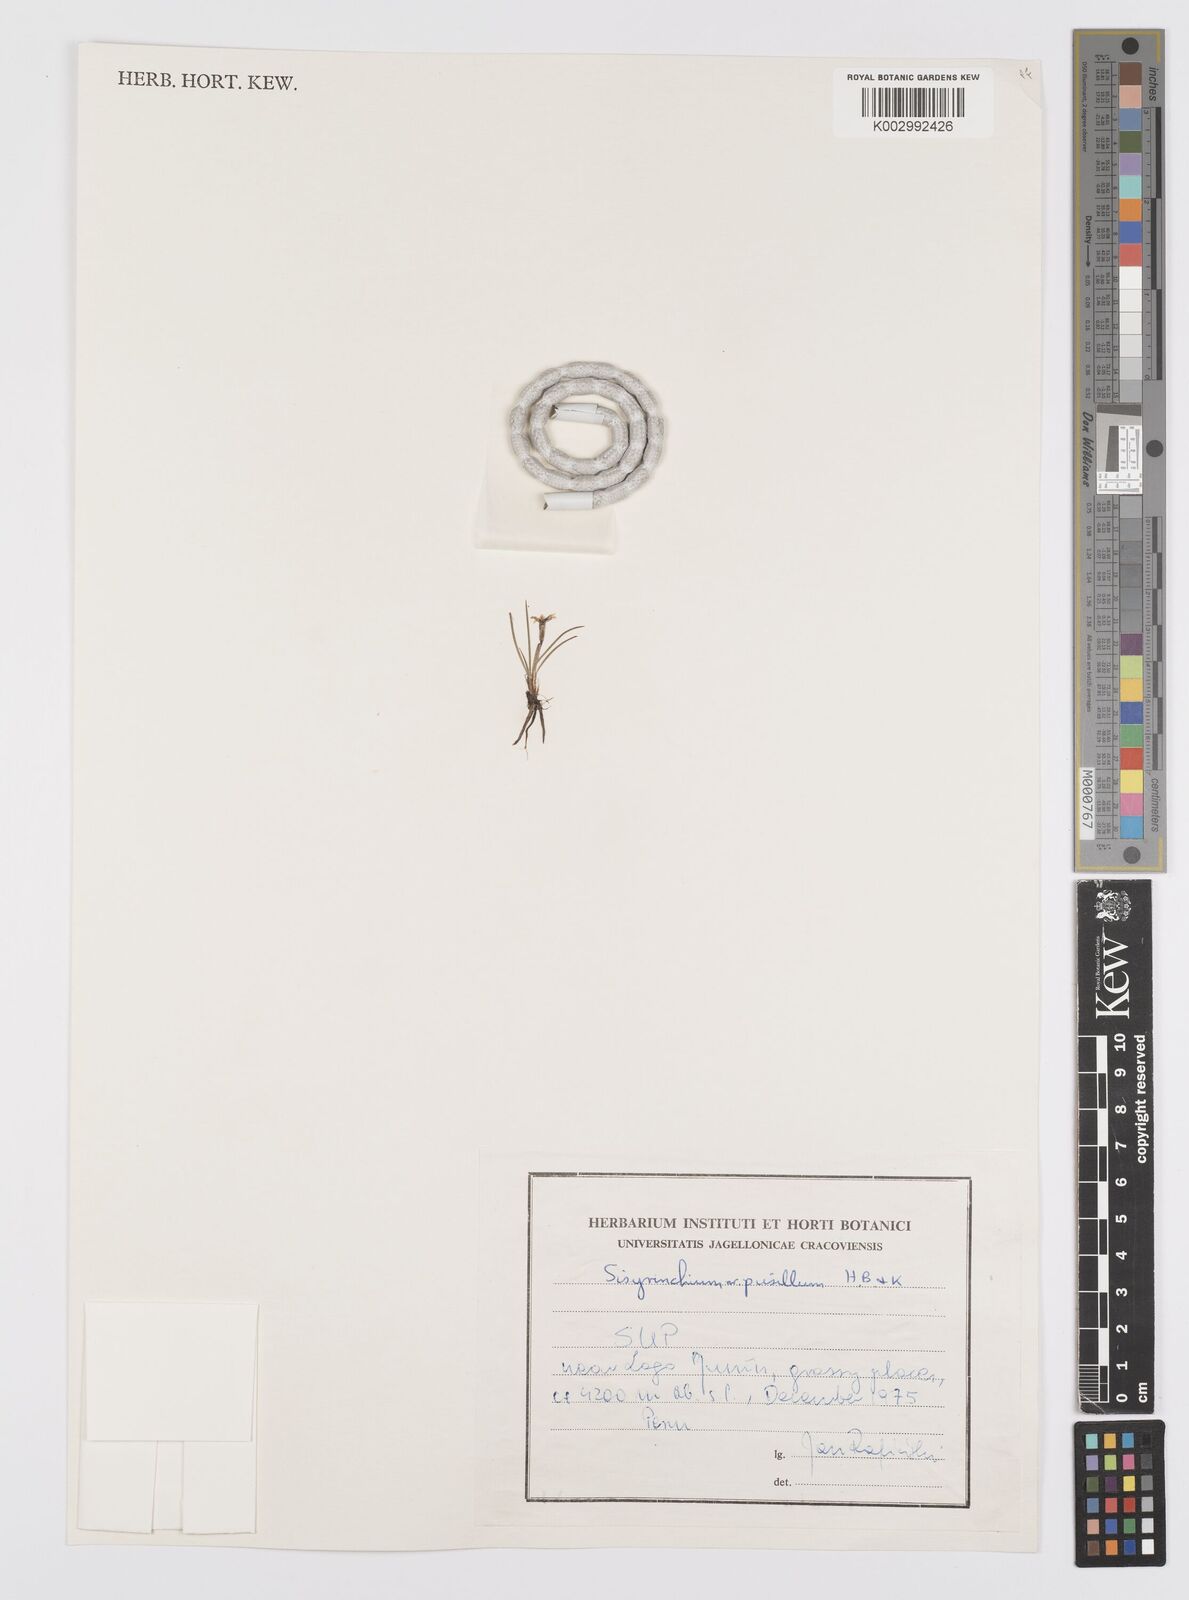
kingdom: Plantae
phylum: Tracheophyta
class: Liliopsida
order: Asparagales
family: Iridaceae
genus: Sisyrinchium
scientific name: Sisyrinchium pusillum
